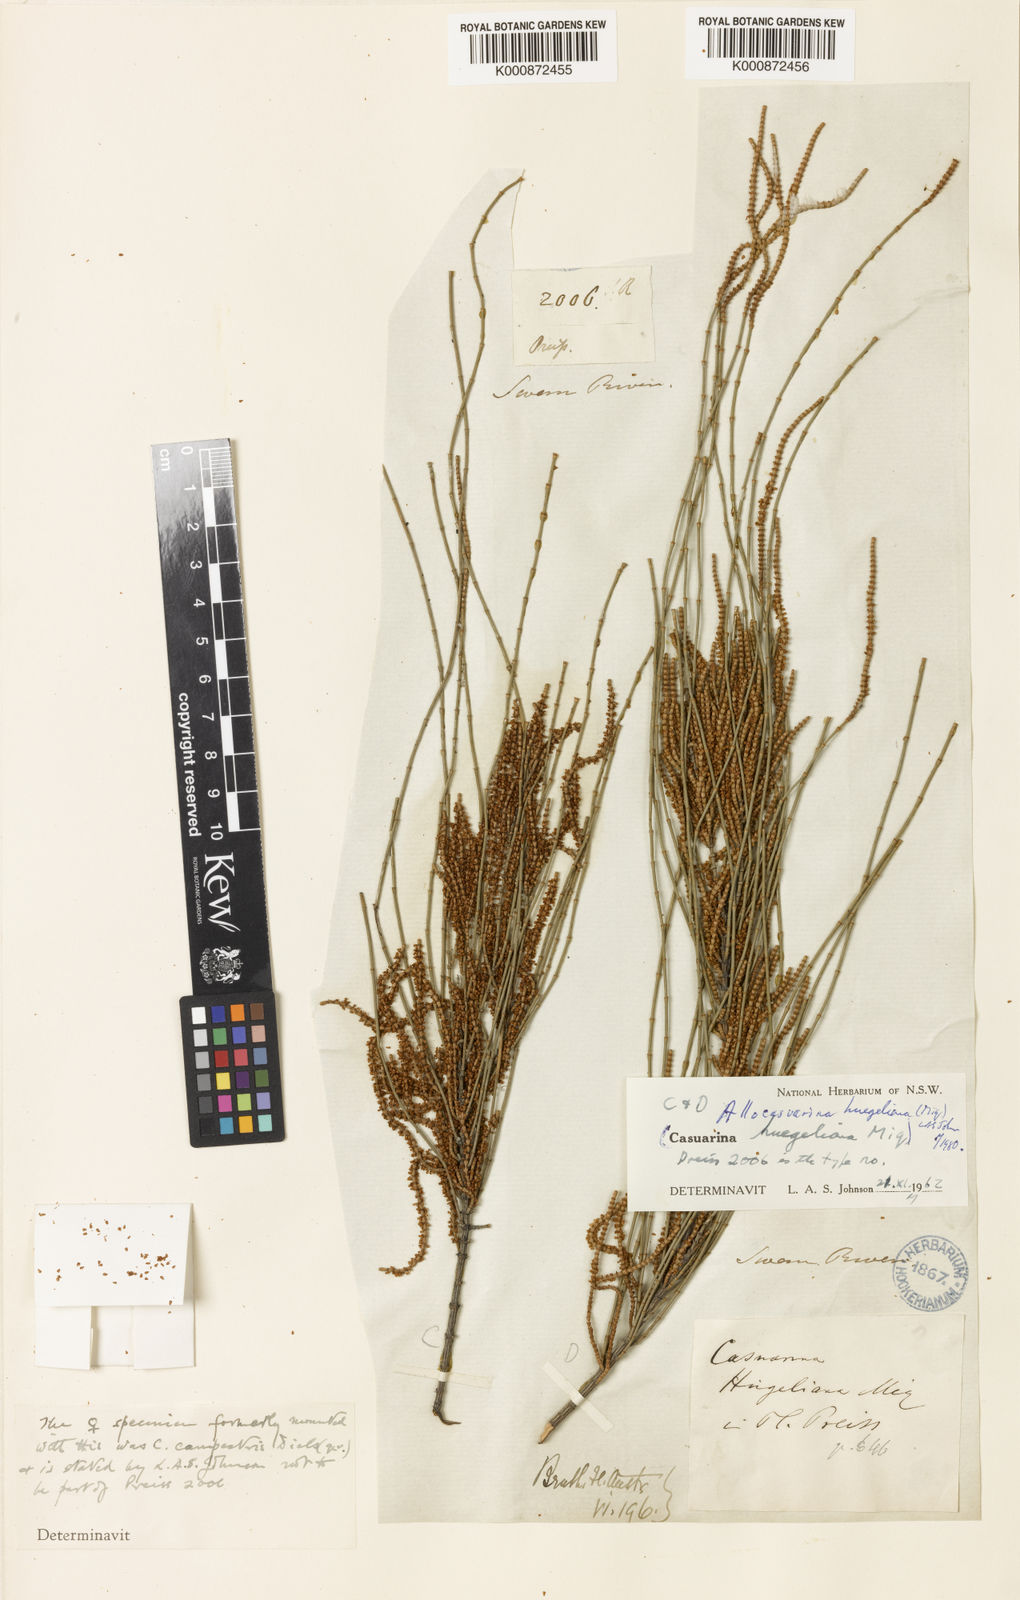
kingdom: Plantae
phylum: Tracheophyta
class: Magnoliopsida
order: Fagales
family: Casuarinaceae
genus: Allocasuarina
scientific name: Allocasuarina huegeliana
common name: Rock she-oak
